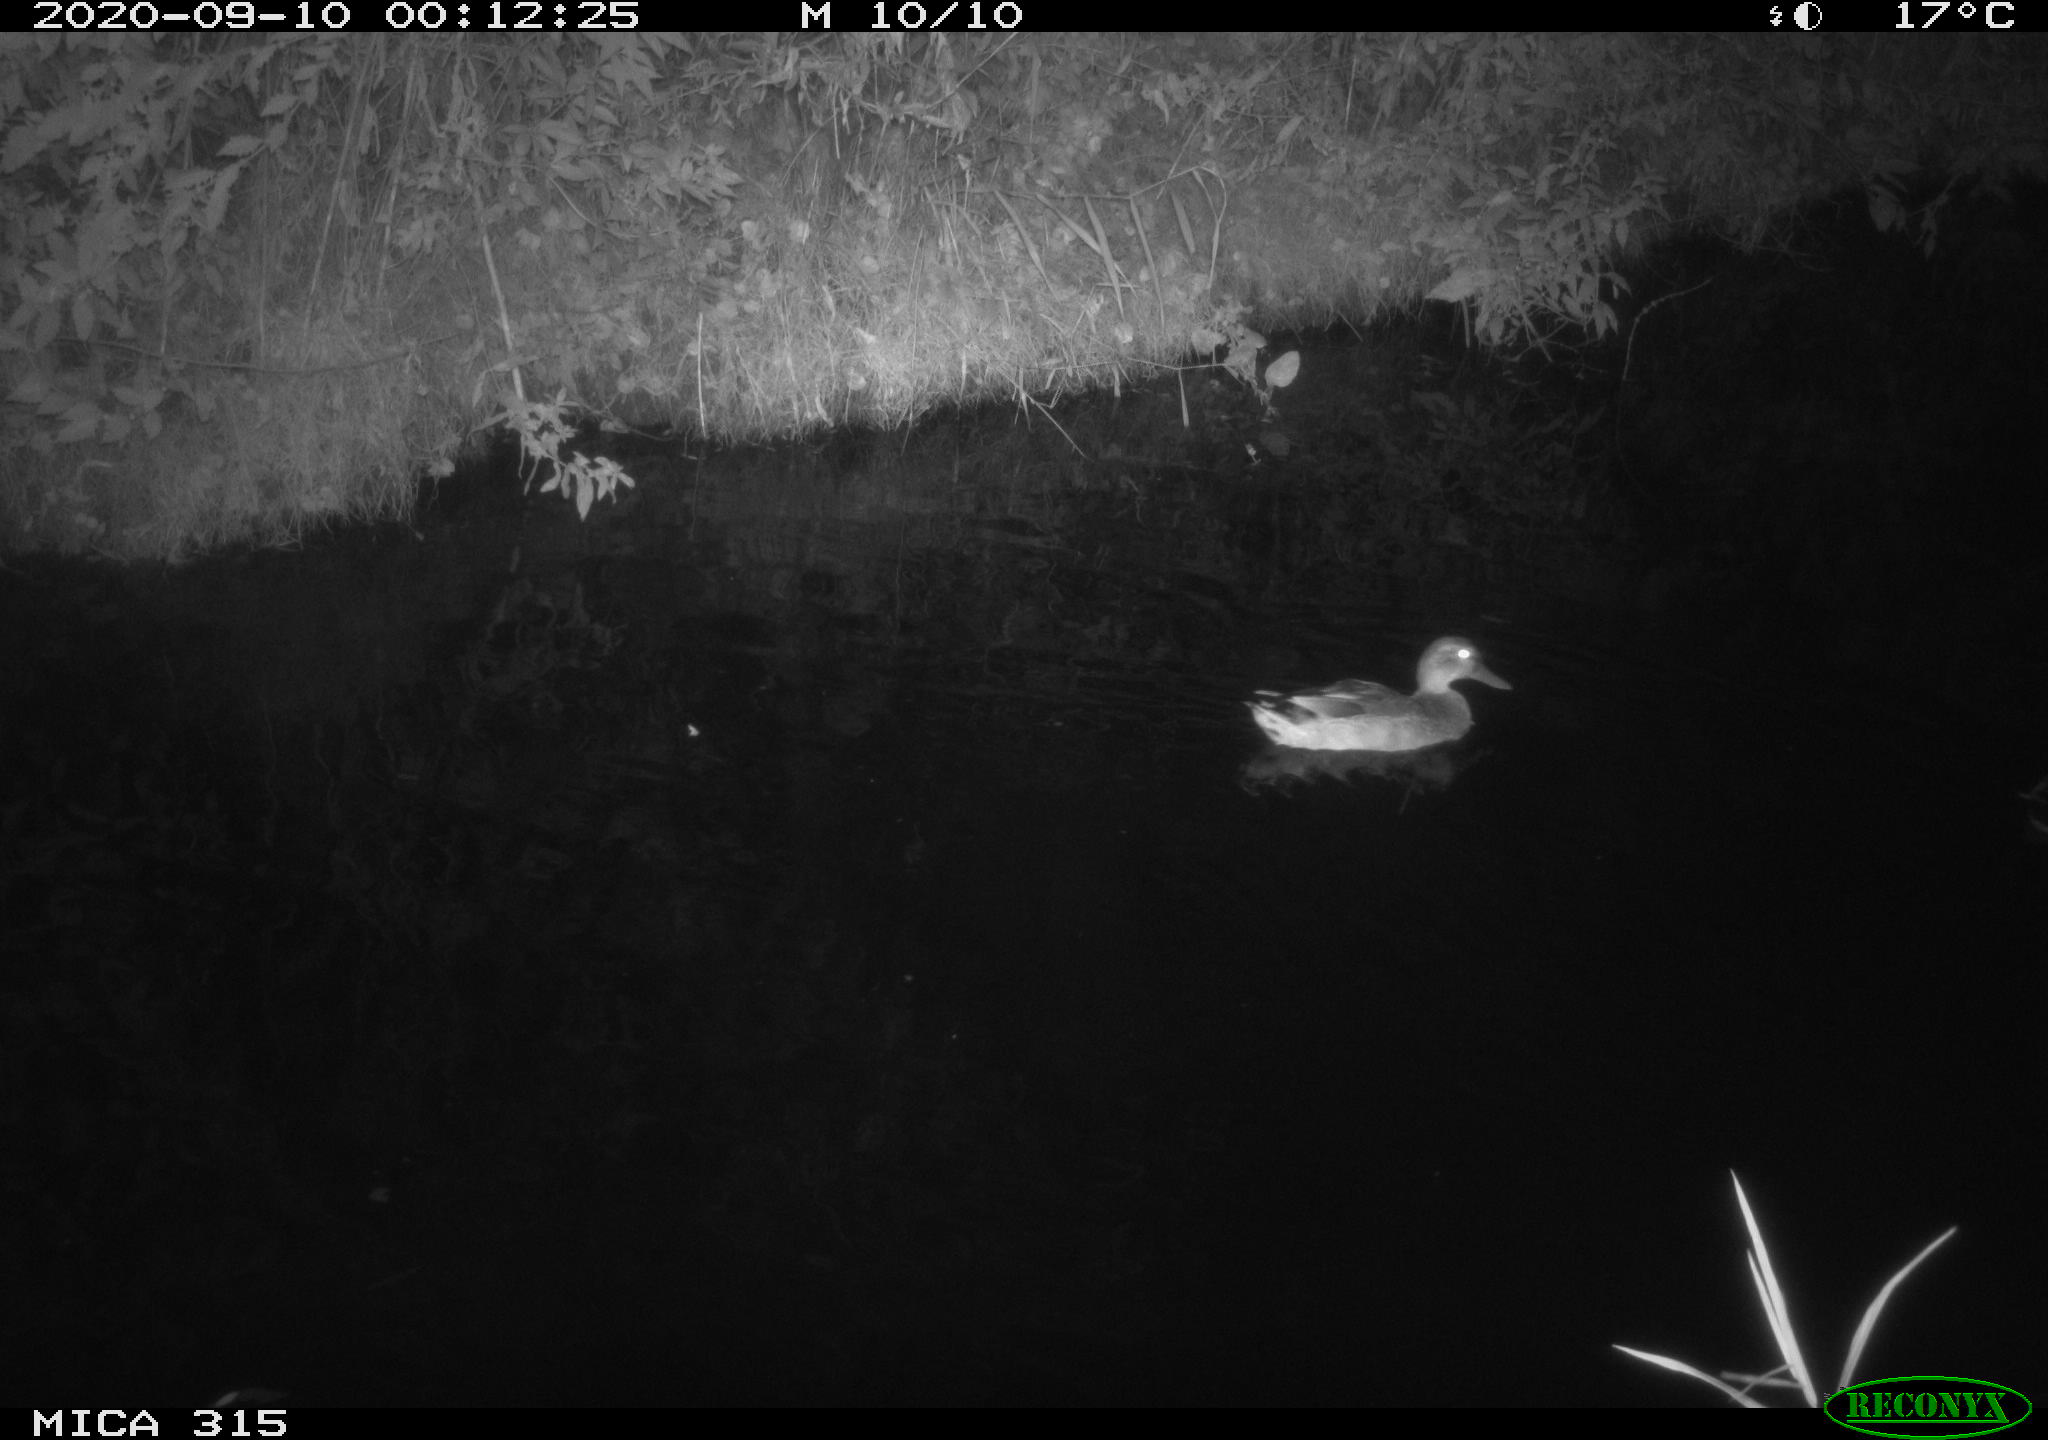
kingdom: Animalia
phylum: Chordata
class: Aves
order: Anseriformes
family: Anatidae
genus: Anas
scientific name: Anas platyrhynchos
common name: Mallard
